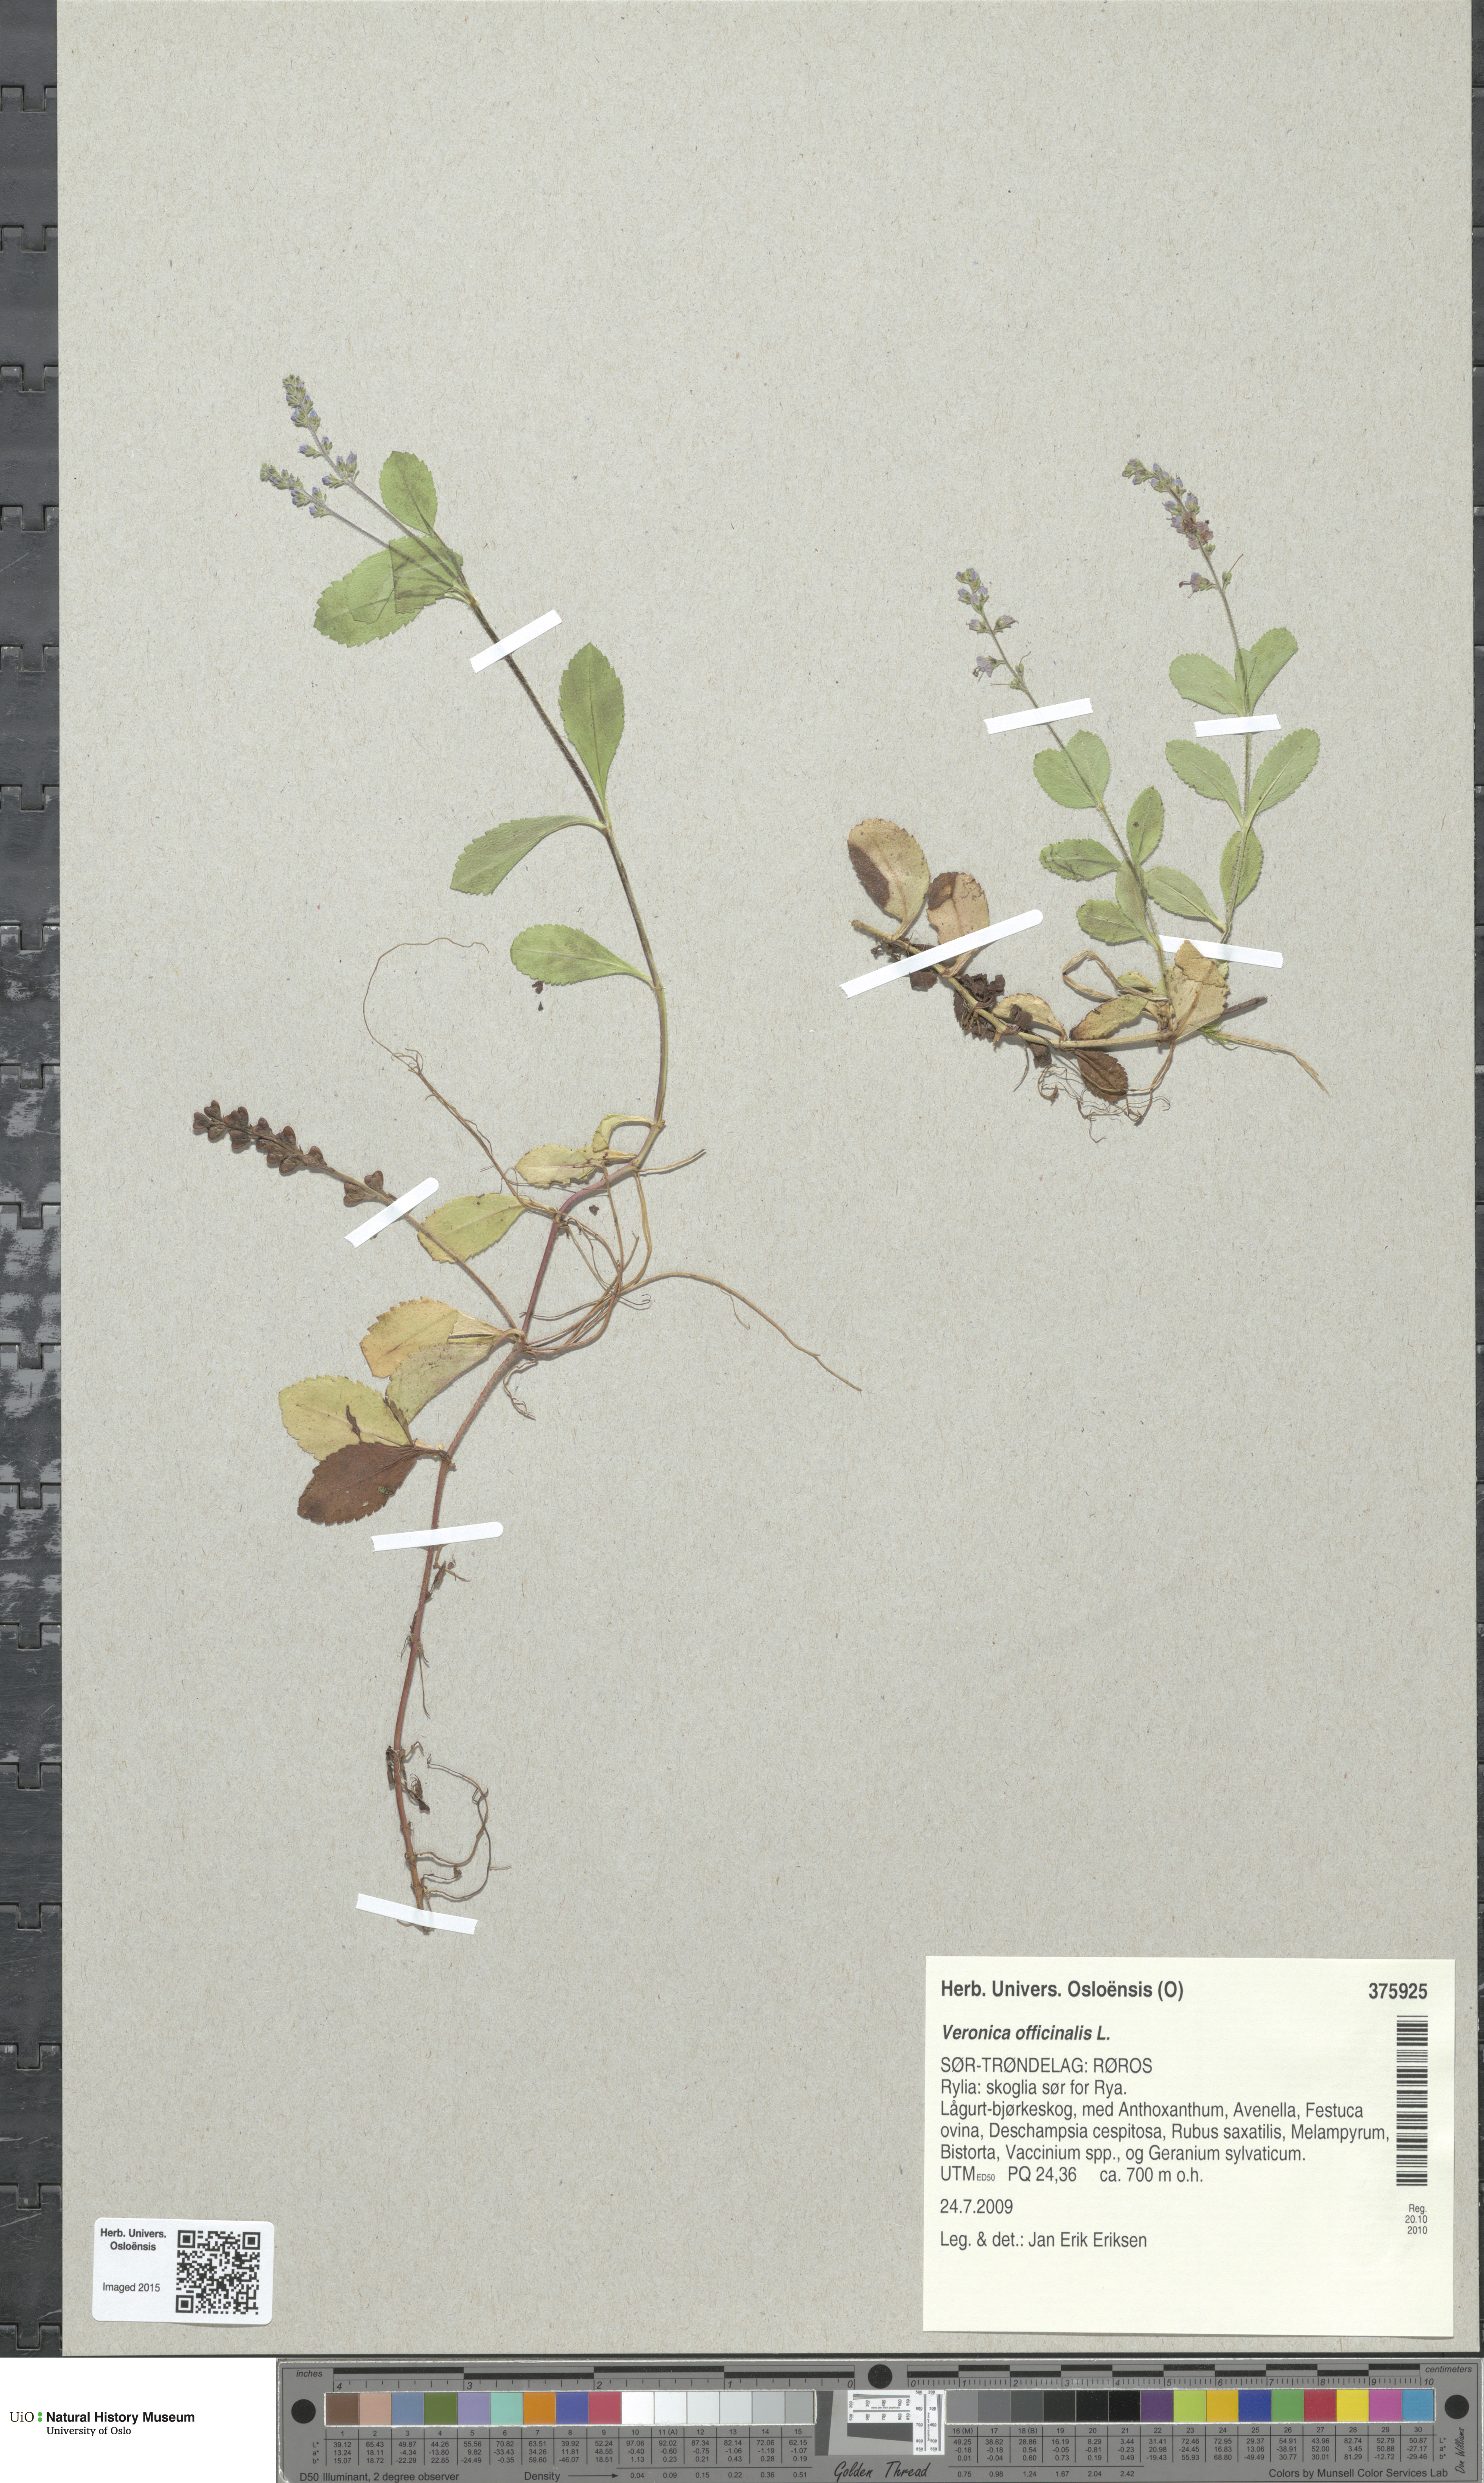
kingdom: Plantae
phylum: Tracheophyta
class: Magnoliopsida
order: Lamiales
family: Plantaginaceae
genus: Veronica
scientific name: Veronica officinalis
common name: Common speedwell
